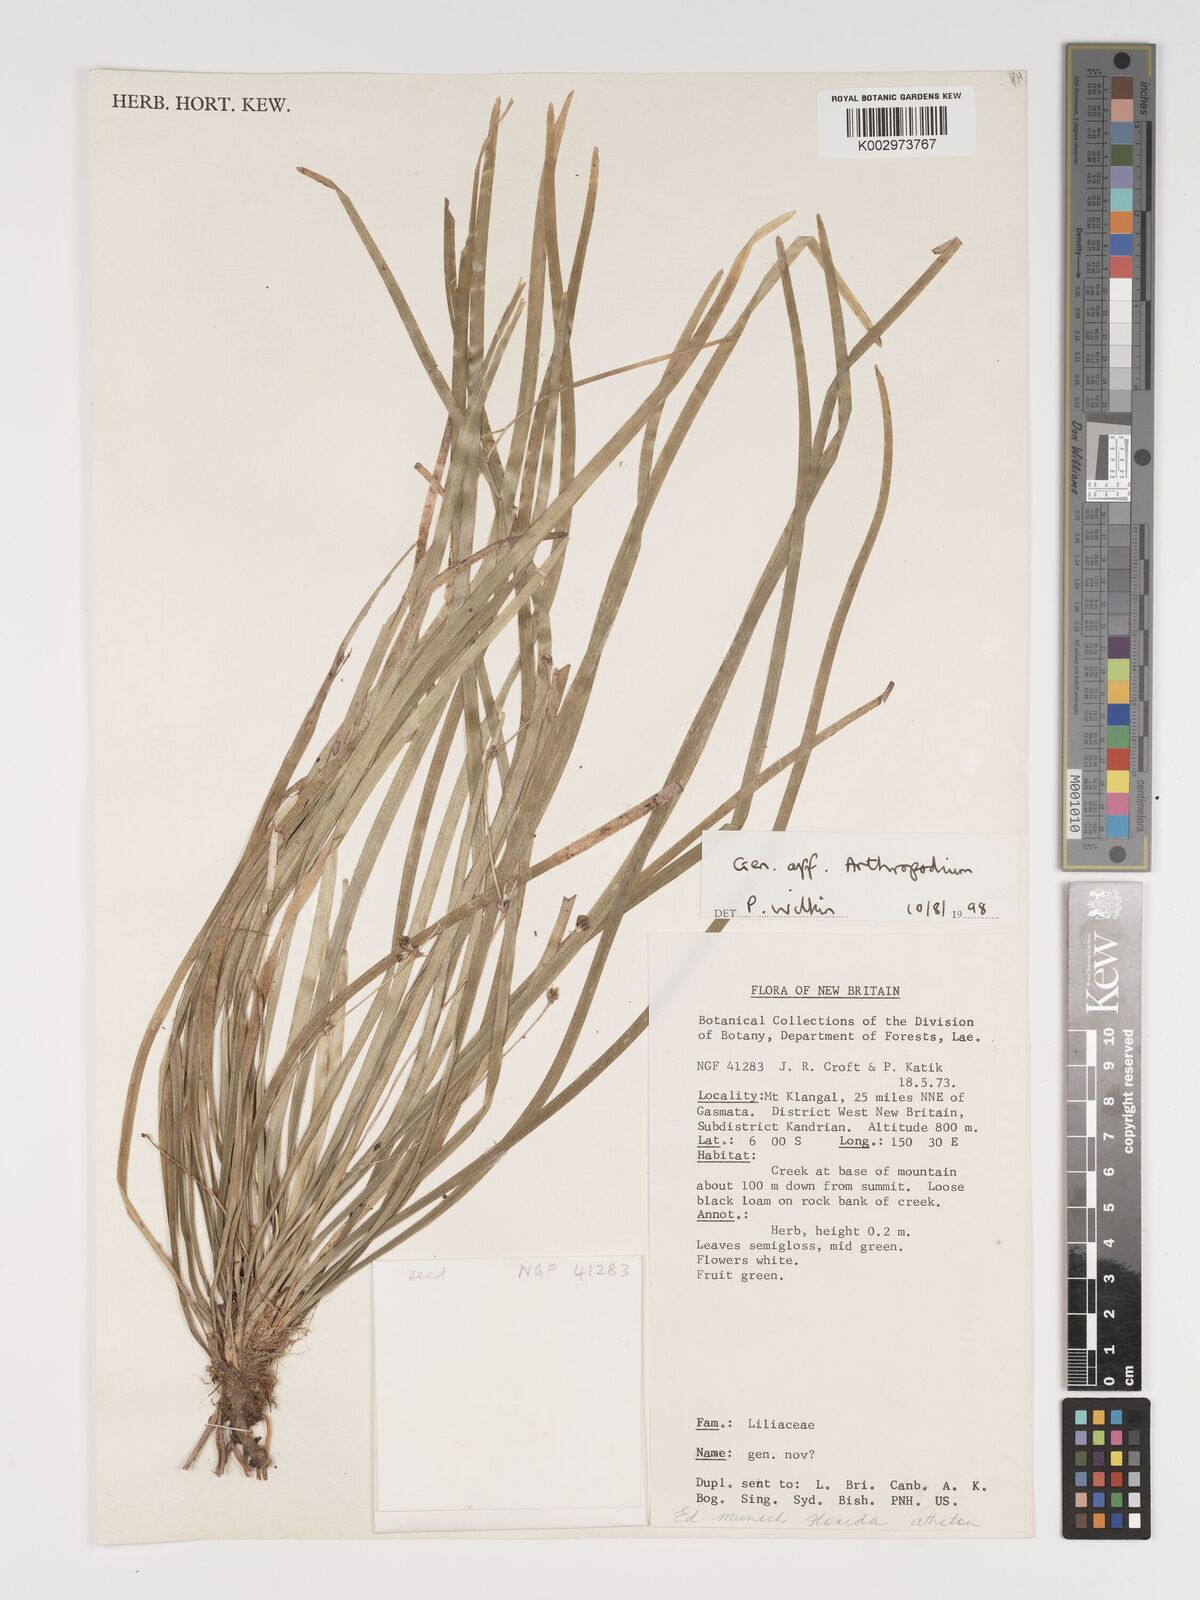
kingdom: Plantae
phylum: Tracheophyta
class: Liliopsida
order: Asparagales
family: Asphodelaceae
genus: Thelionema
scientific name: Thelionema caespitosum
